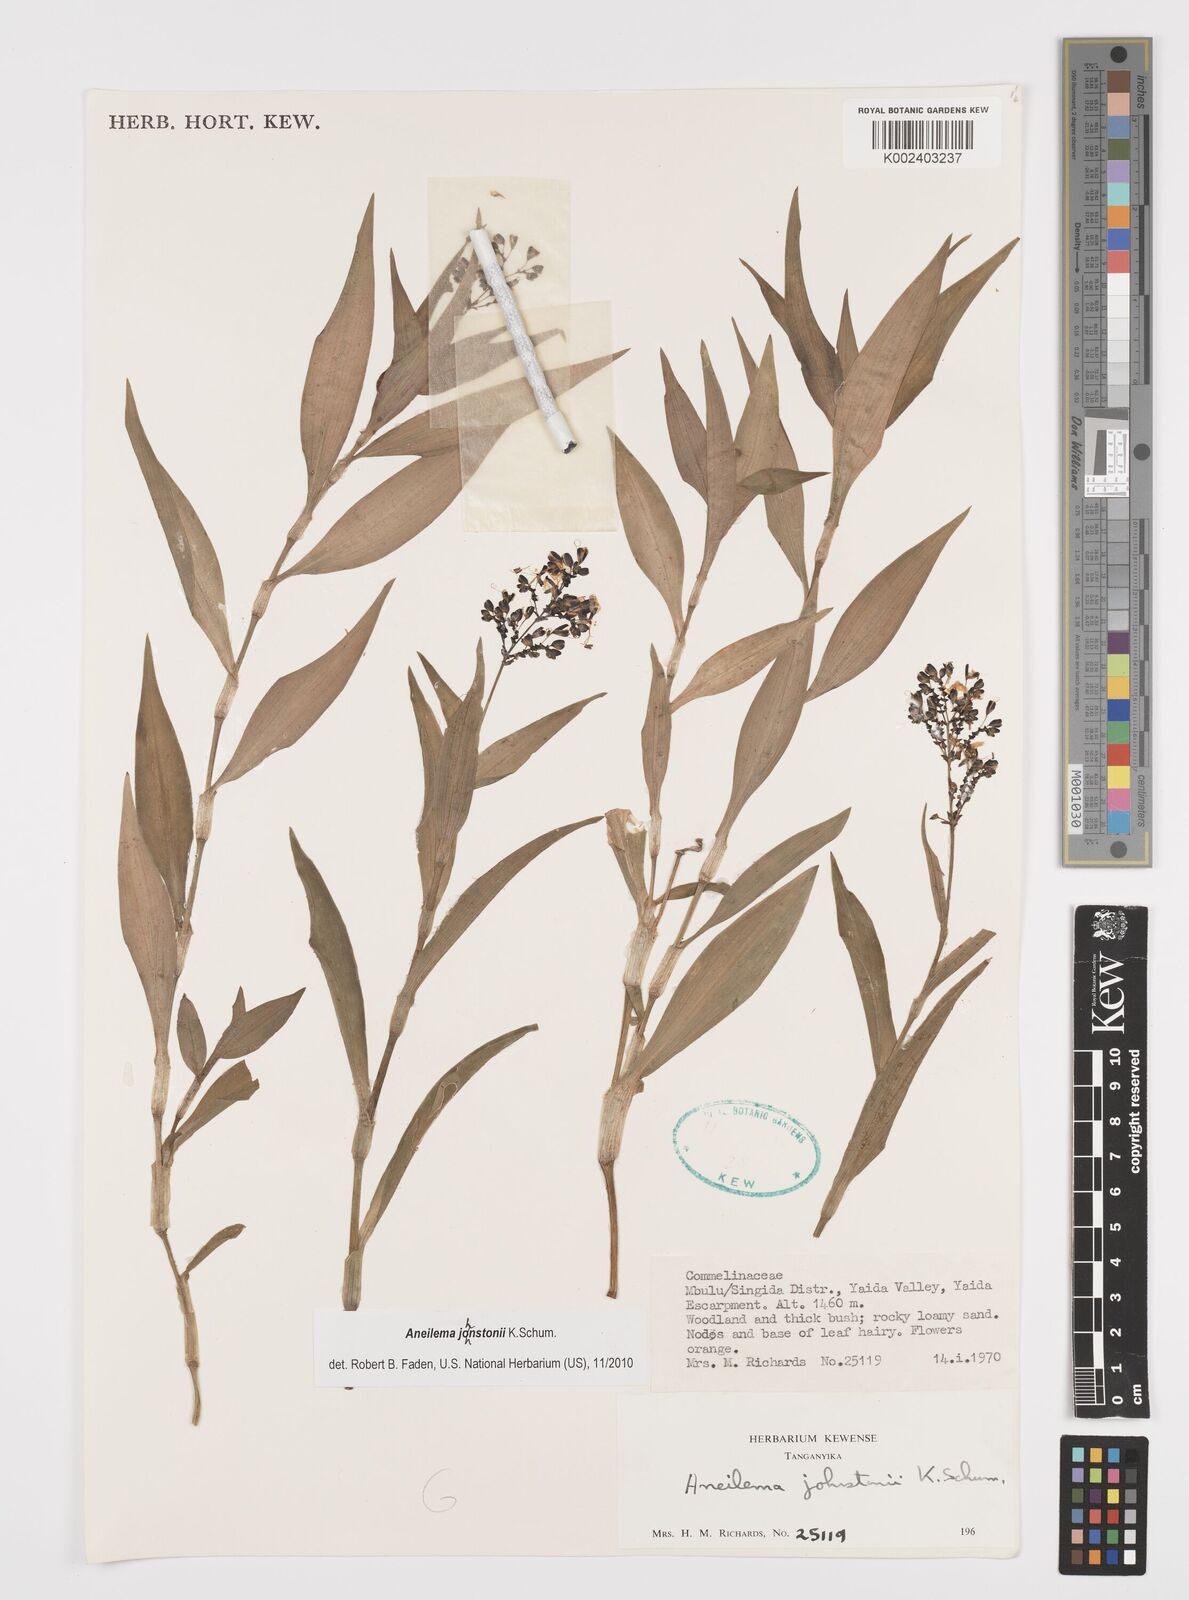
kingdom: Plantae
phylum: Tracheophyta
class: Liliopsida
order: Commelinales
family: Commelinaceae
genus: Aneilema
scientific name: Aneilema johnstonii
